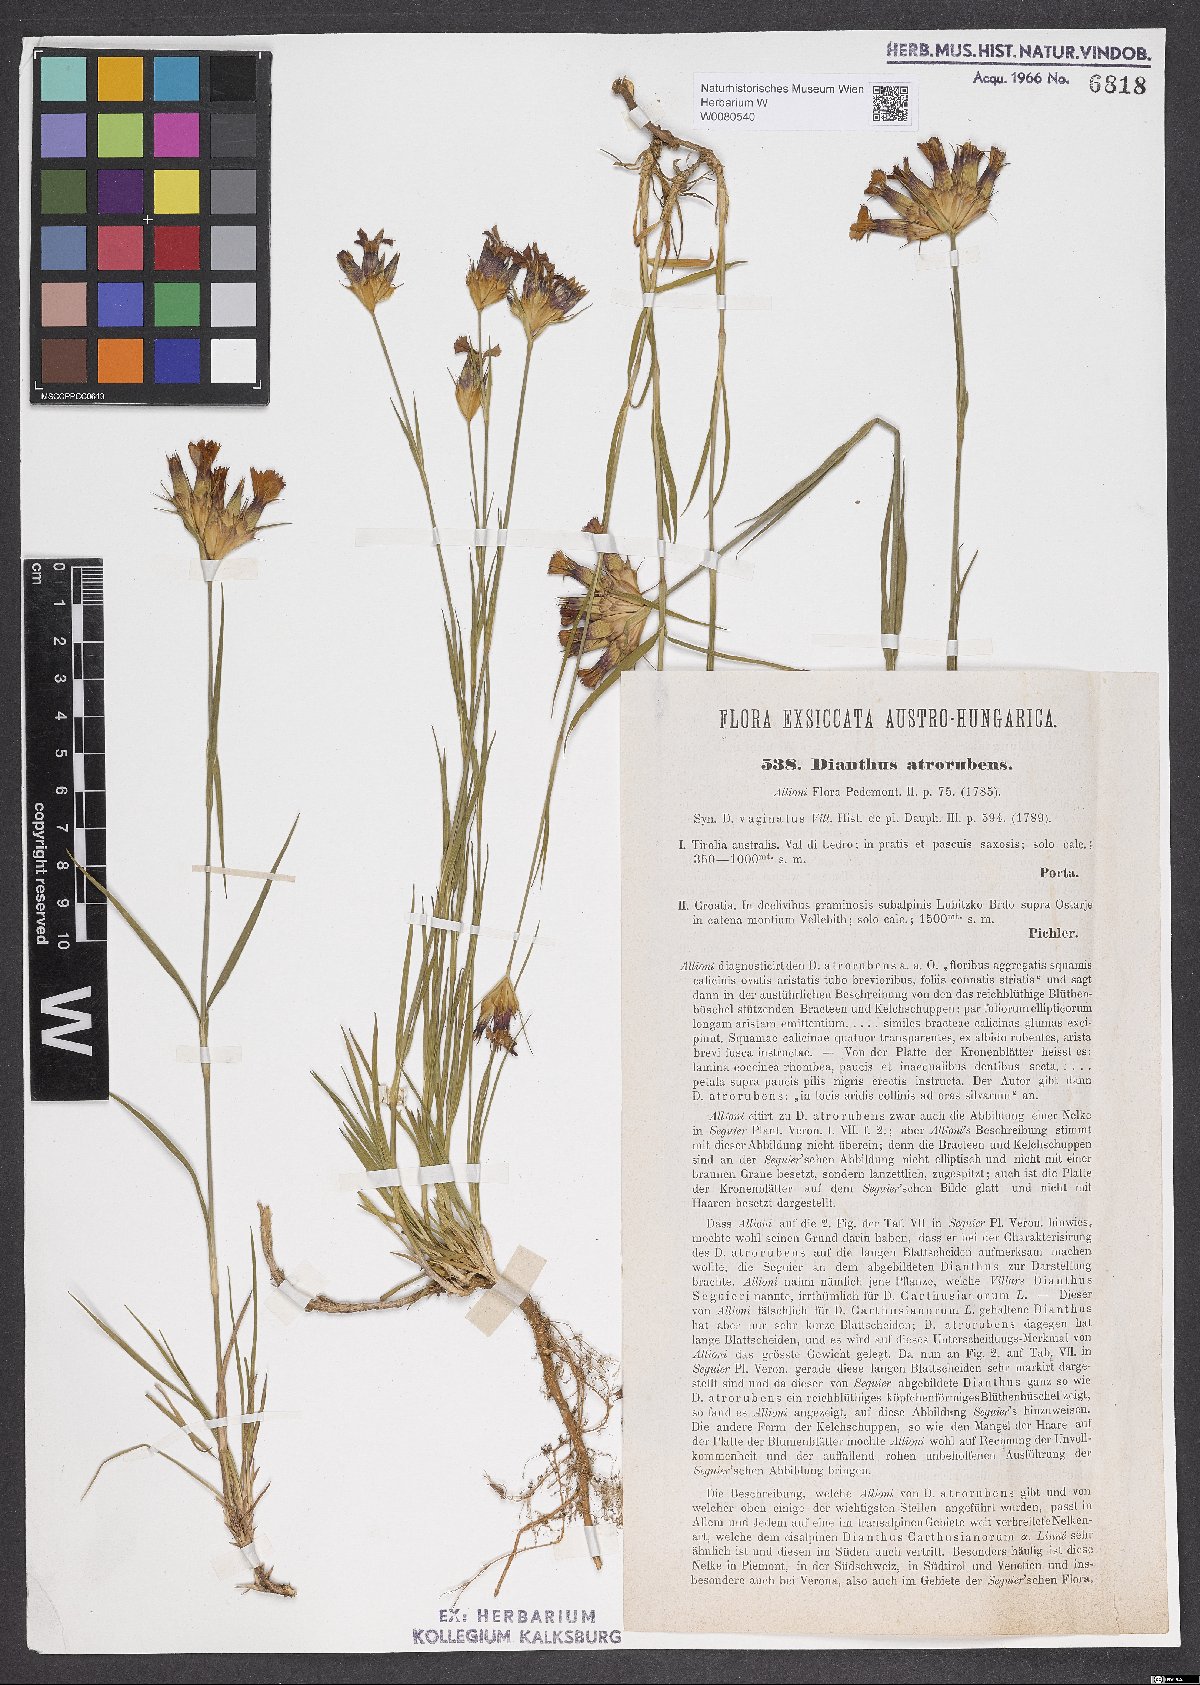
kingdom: Plantae
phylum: Tracheophyta
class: Magnoliopsida
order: Caryophyllales
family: Caryophyllaceae
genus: Dianthus
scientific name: Dianthus carthusianorum
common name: Carthusian pink
